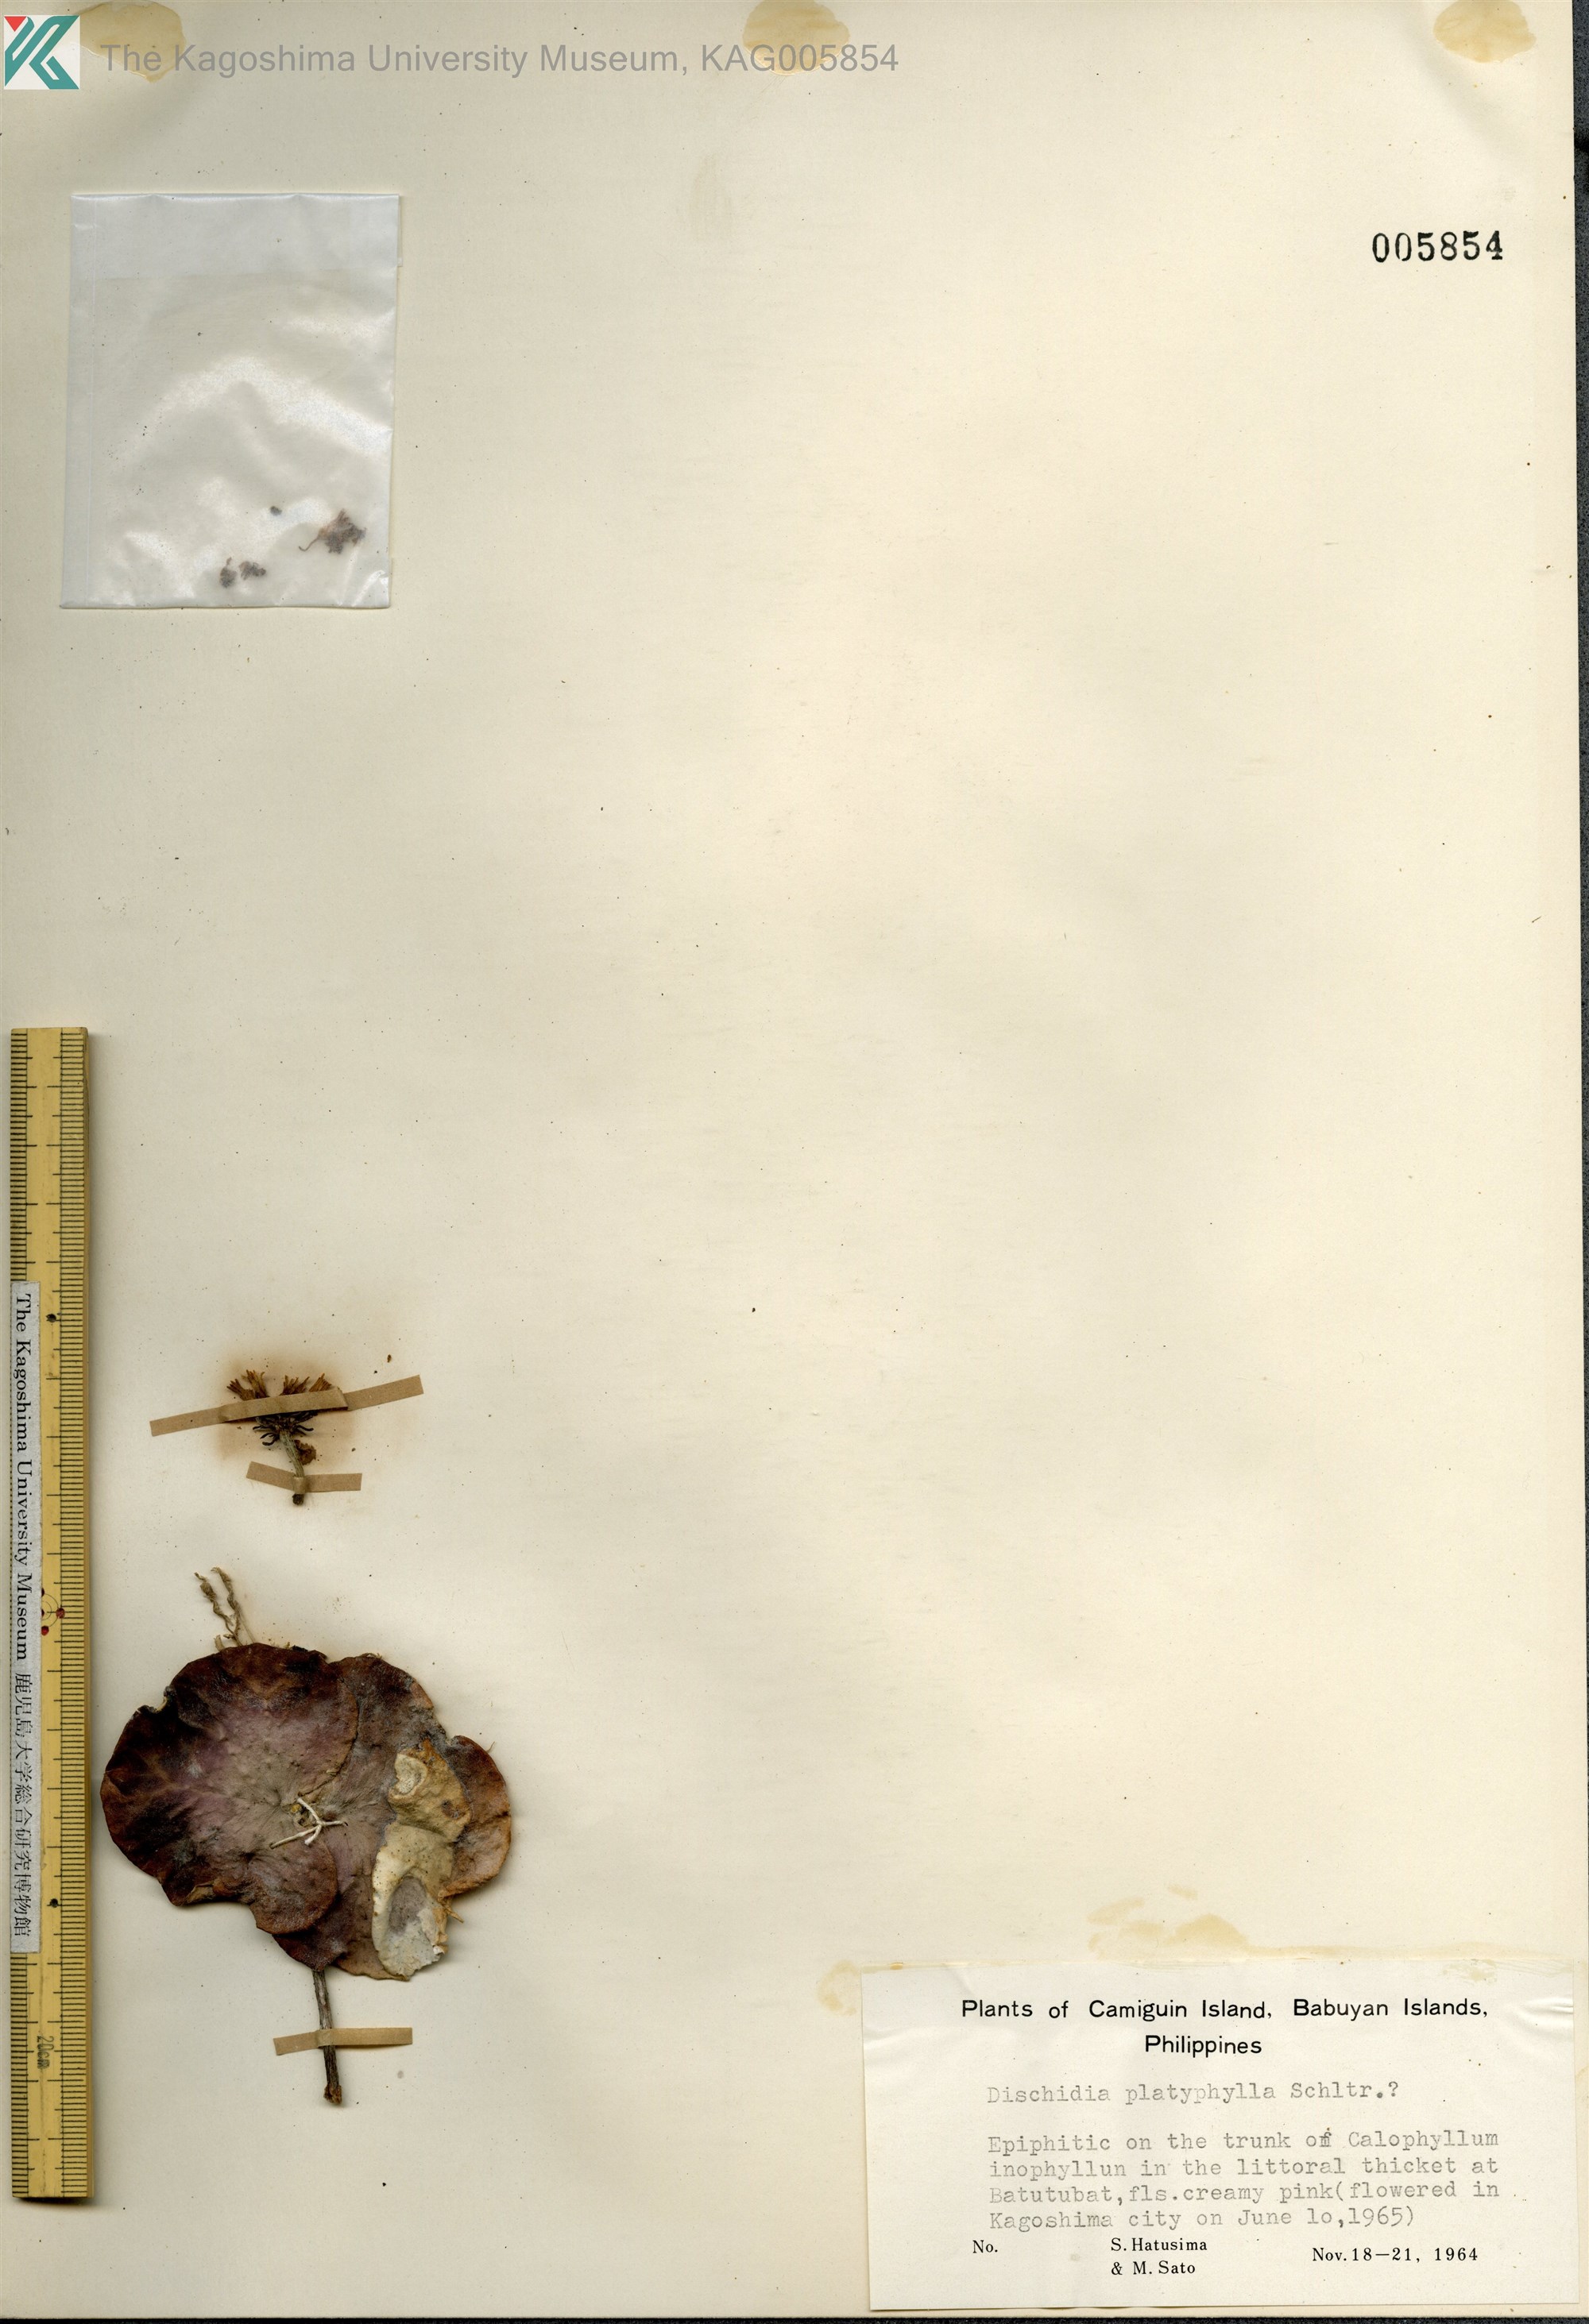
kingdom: Plantae
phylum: Tracheophyta
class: Magnoliopsida
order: Gentianales
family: Apocynaceae
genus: Dischidia
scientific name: Dischidia platyphylla
